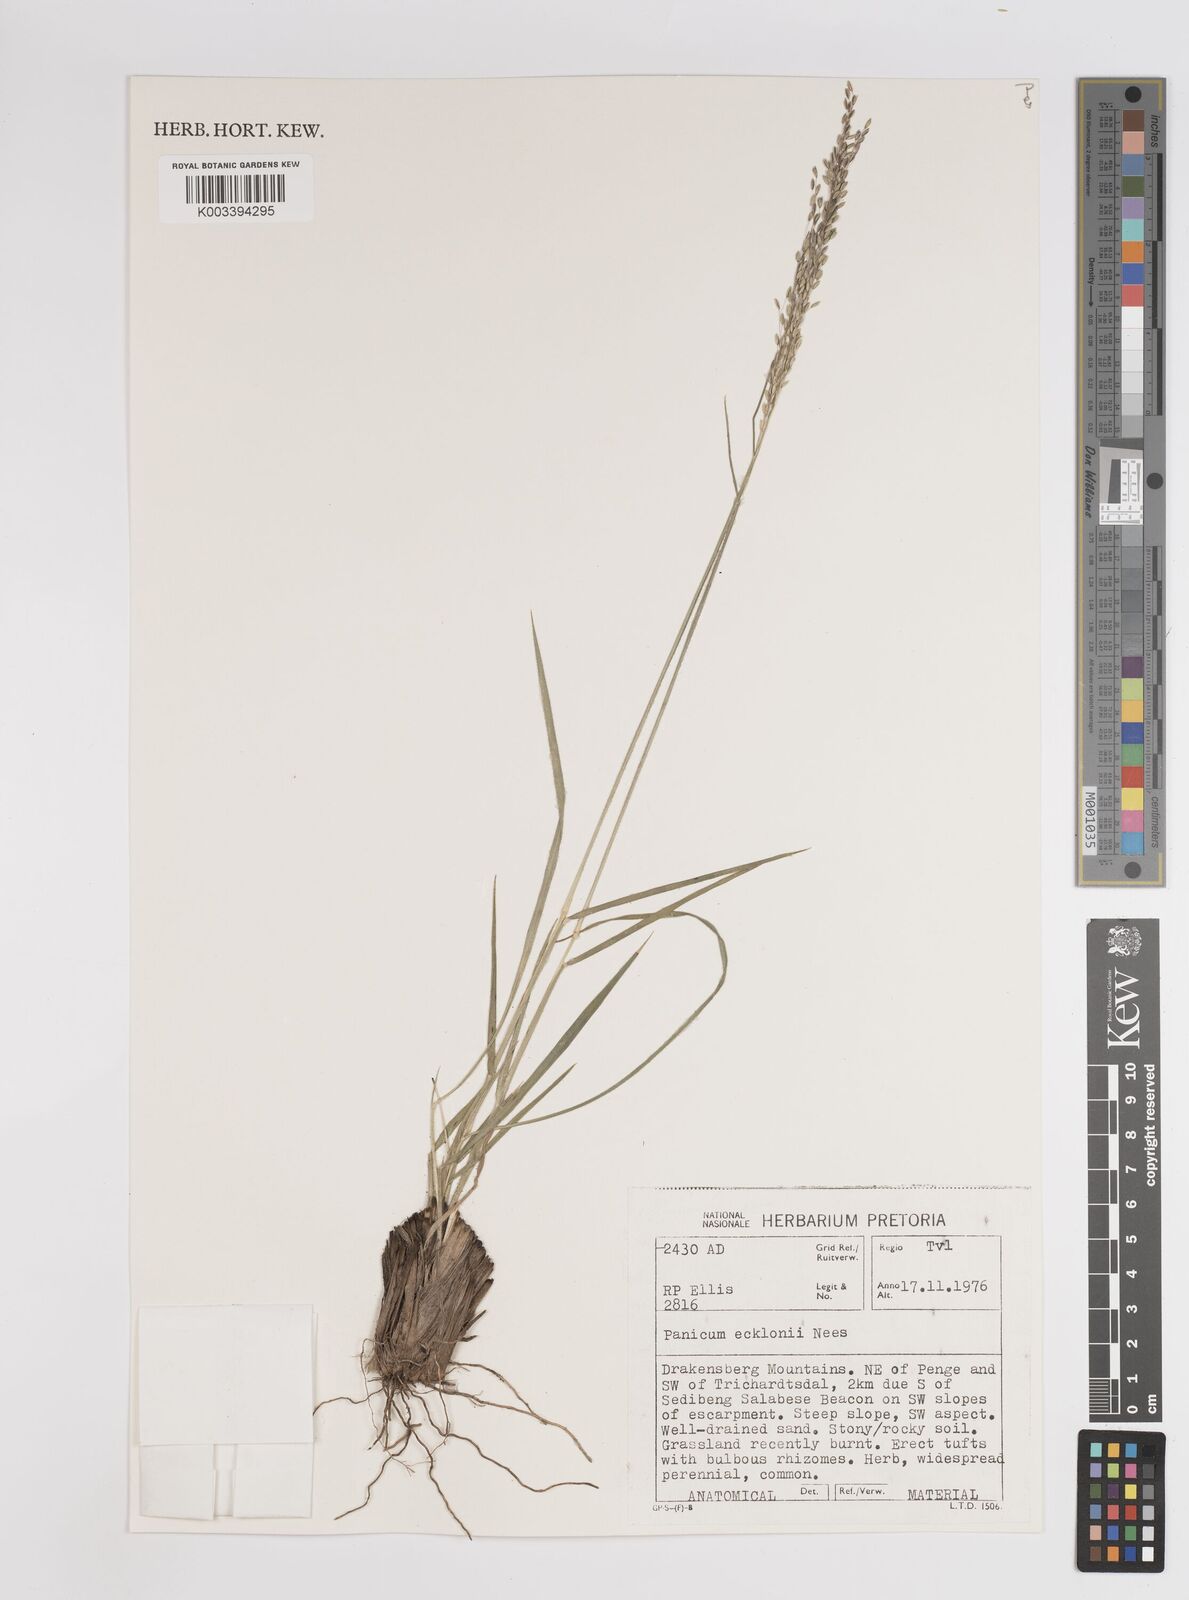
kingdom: Plantae
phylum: Tracheophyta
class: Liliopsida
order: Poales
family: Poaceae
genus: Adenochloa
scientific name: Adenochloa ecklonii
